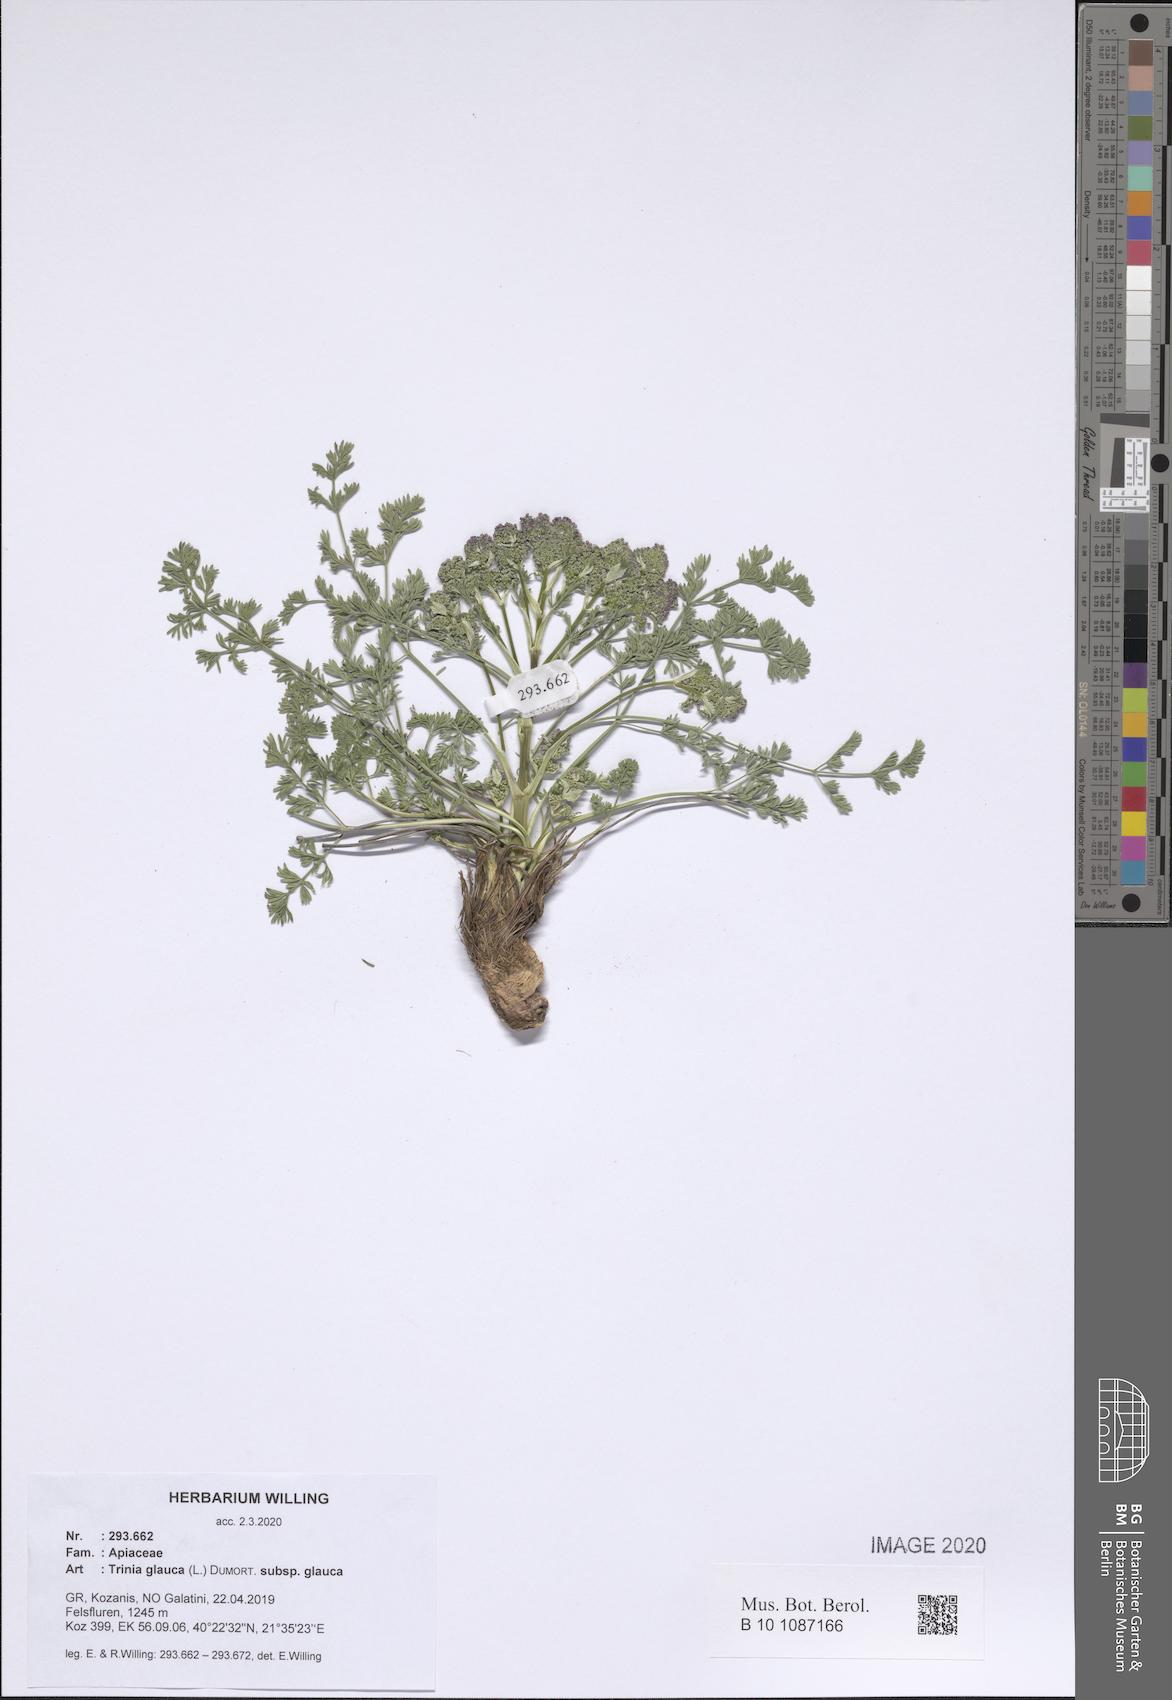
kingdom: Plantae
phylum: Tracheophyta
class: Magnoliopsida
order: Apiales
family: Apiaceae
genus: Trinia
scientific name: Trinia glauca
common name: Honewort
